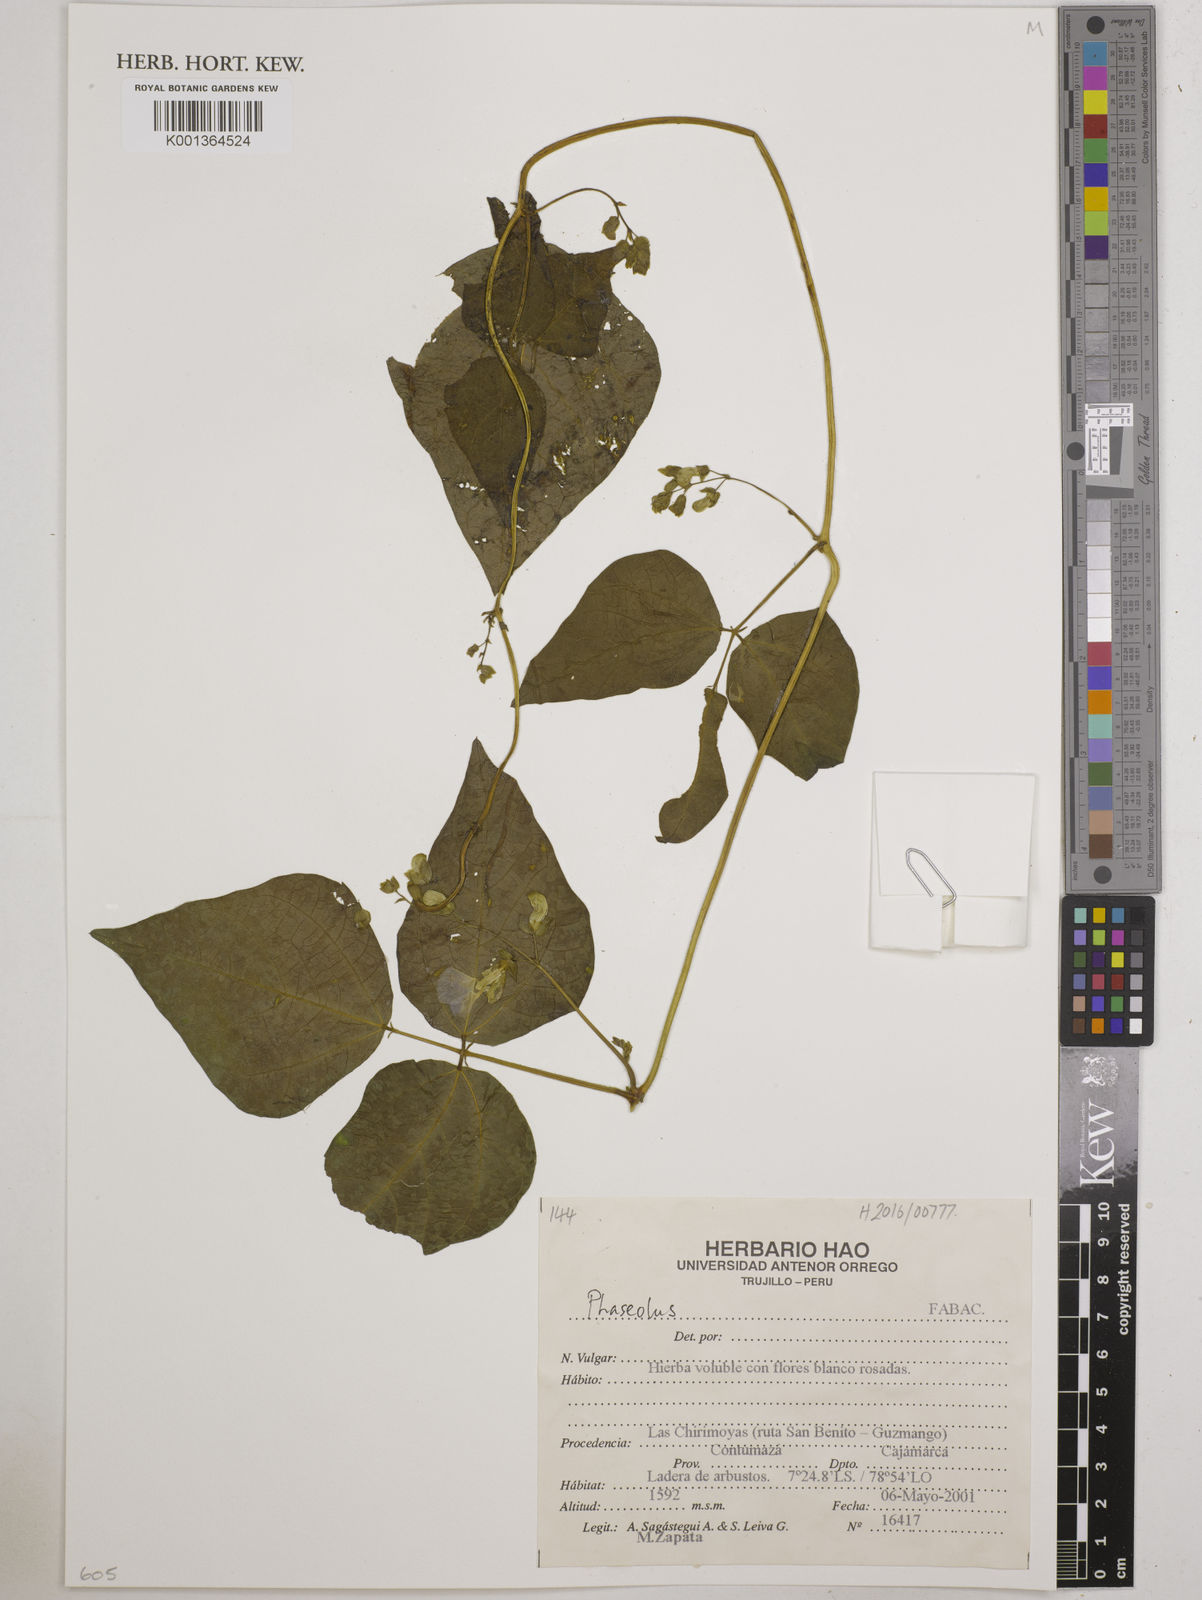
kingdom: Plantae
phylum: Tracheophyta
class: Magnoliopsida
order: Fabales
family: Fabaceae
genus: Phaseolus
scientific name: Phaseolus
